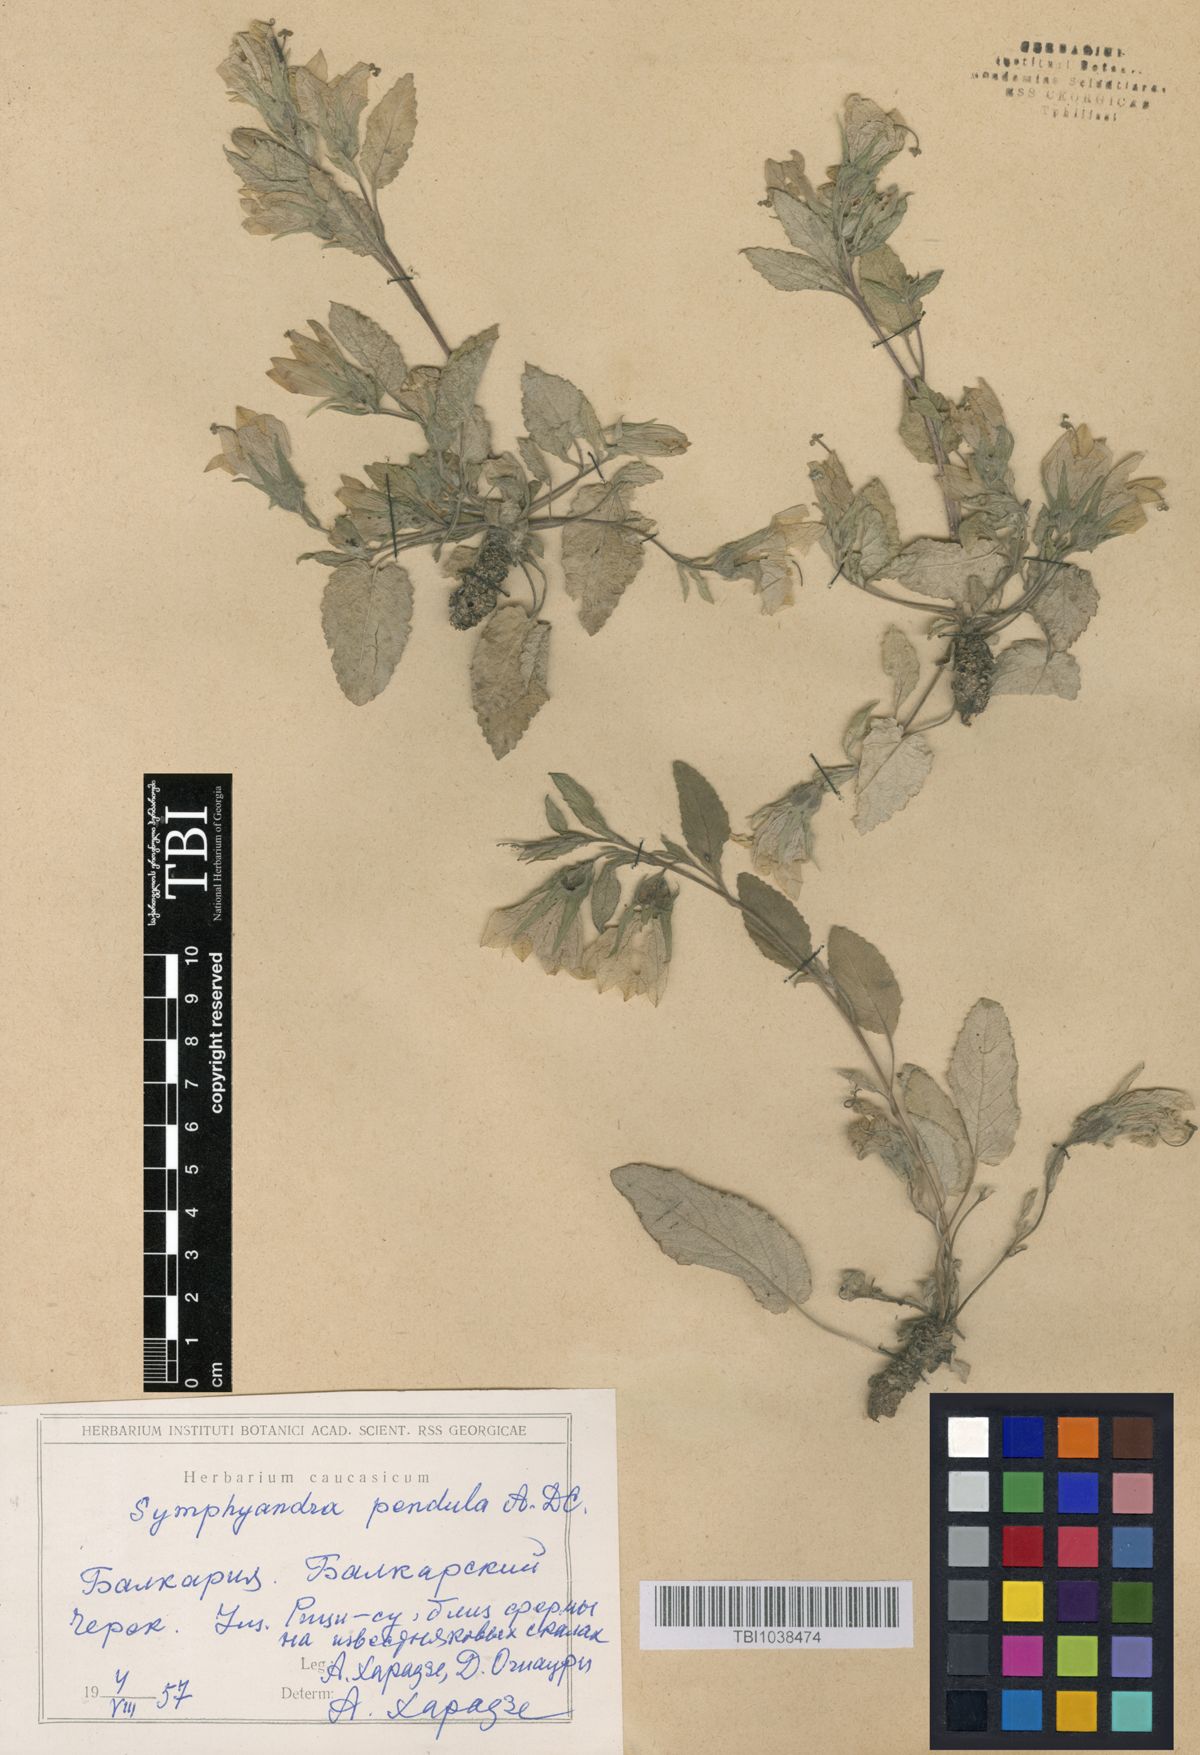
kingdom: Plantae
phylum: Tracheophyta
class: Magnoliopsida
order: Asterales
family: Campanulaceae
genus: Campanula
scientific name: Campanula pendula
